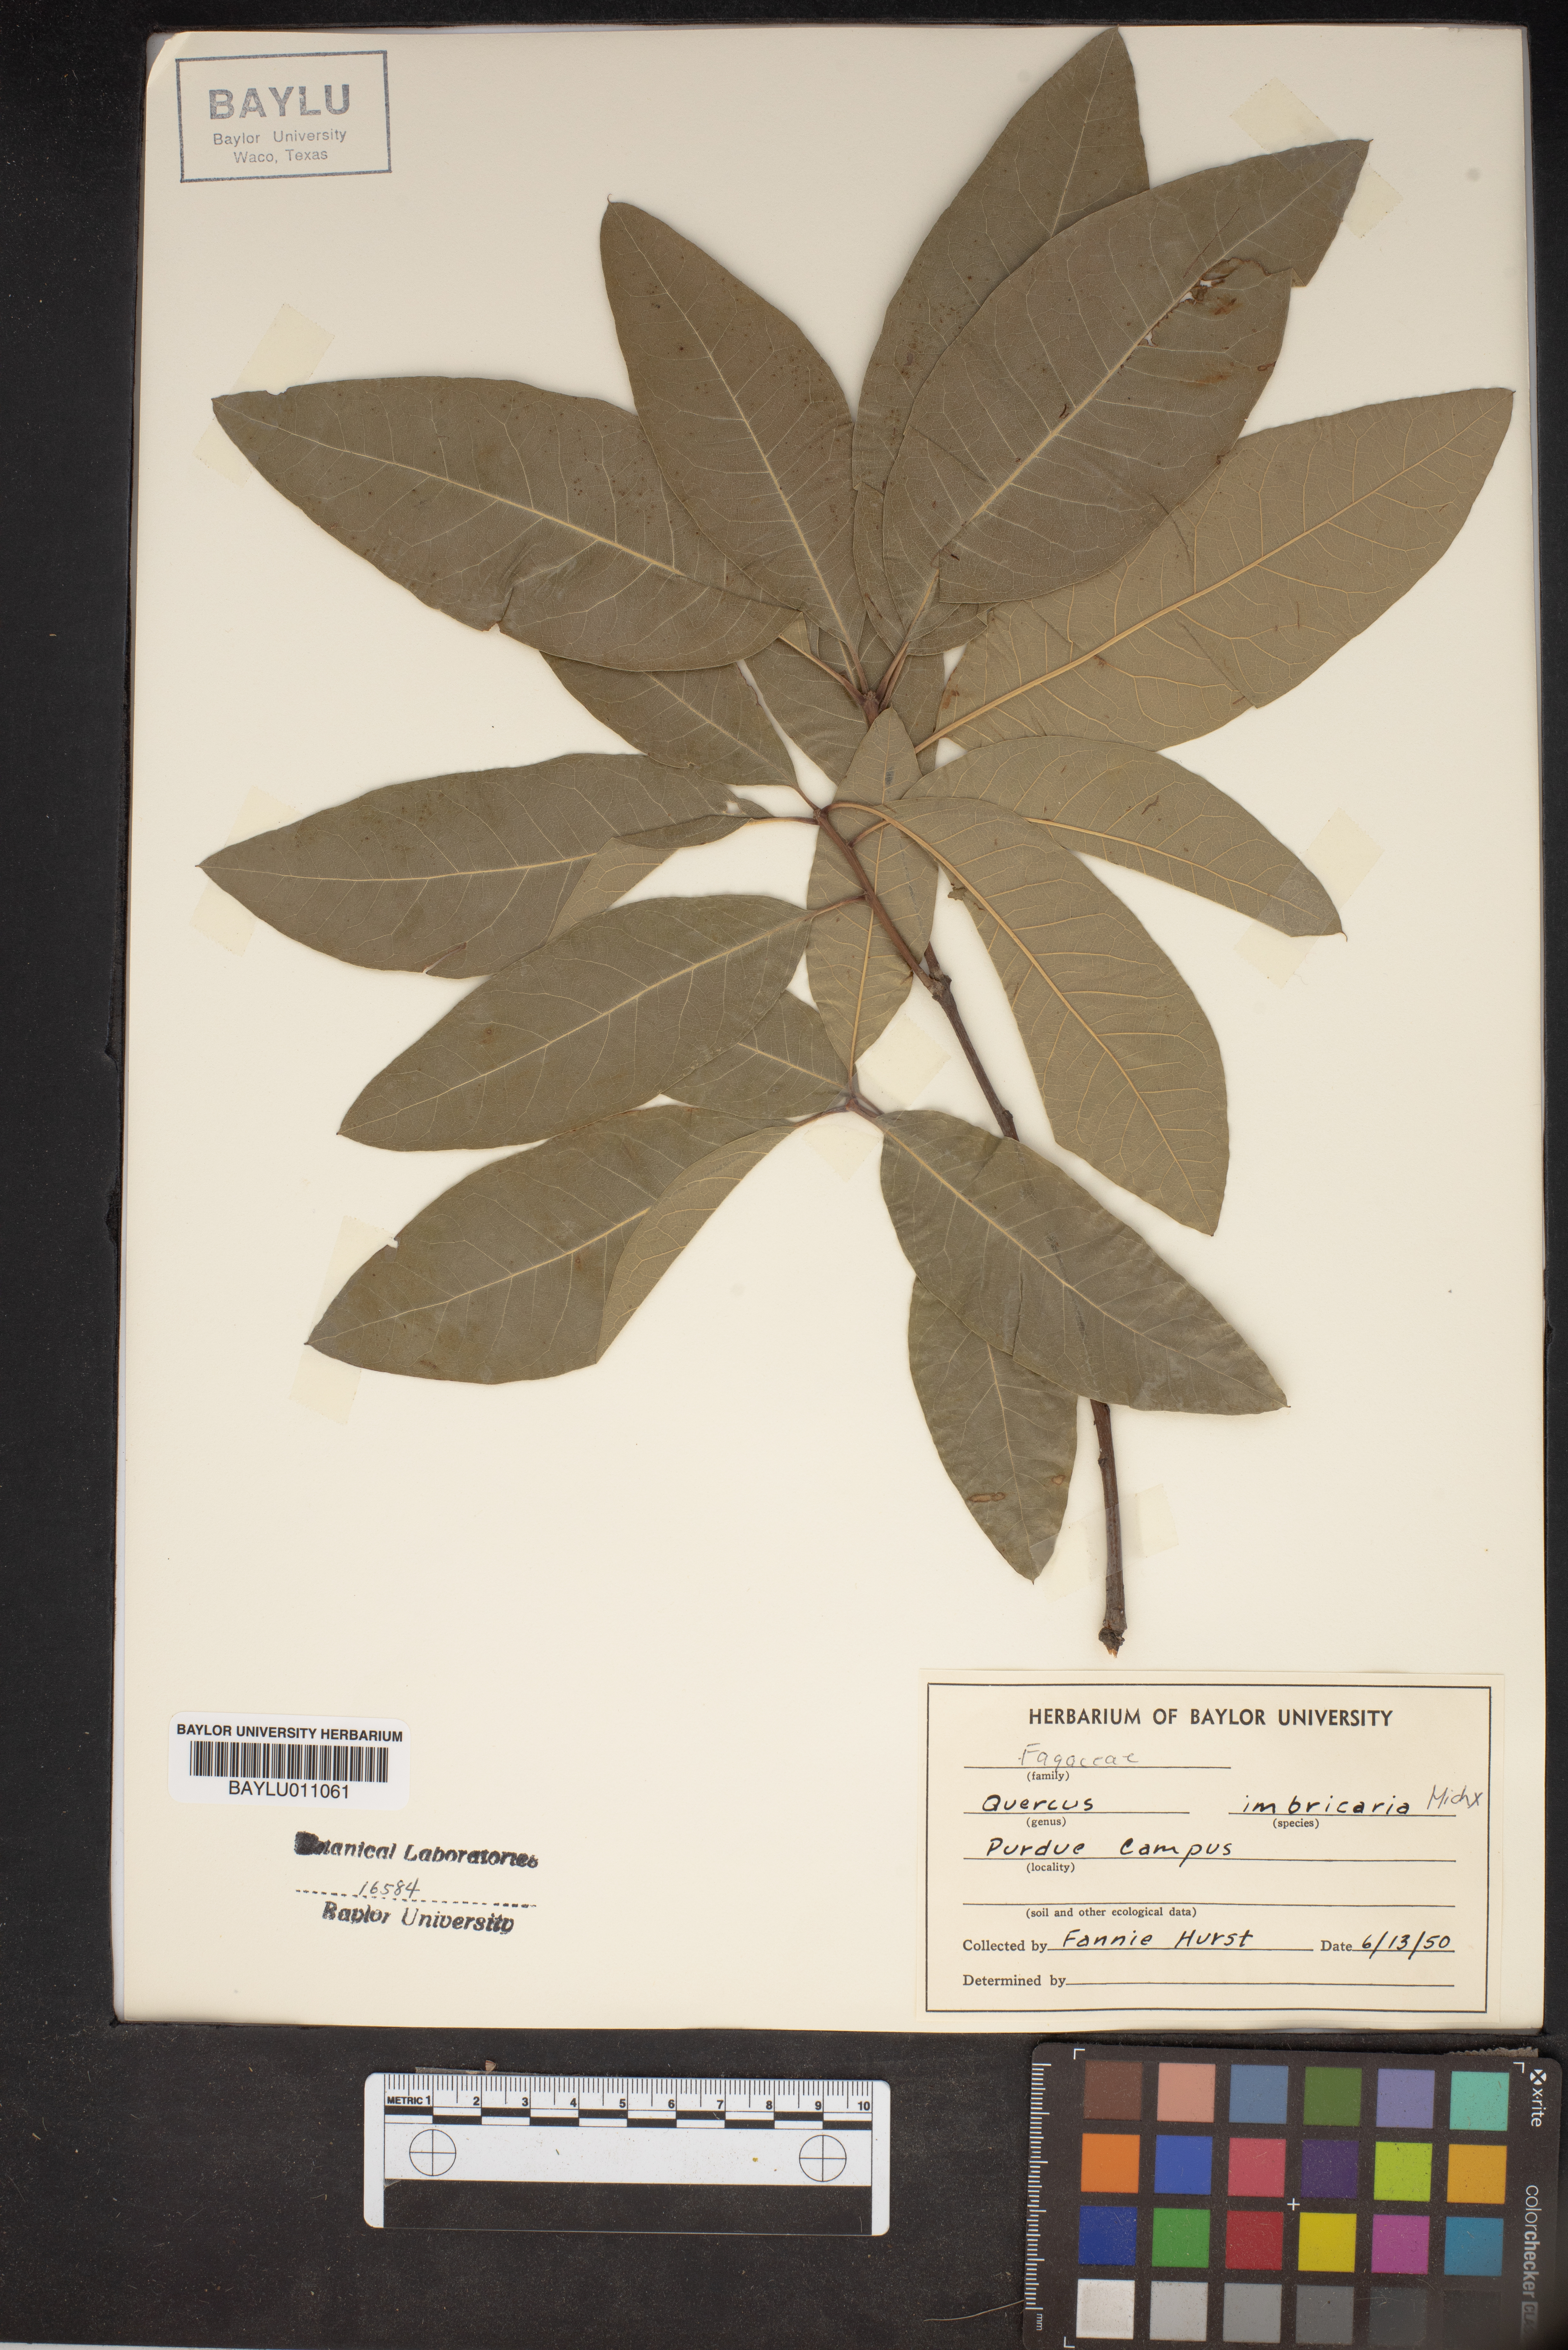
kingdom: Plantae
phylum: Tracheophyta
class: Magnoliopsida
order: Fagales
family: Fagaceae
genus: Quercus
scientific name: Quercus imbricaria
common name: Shingle oak
